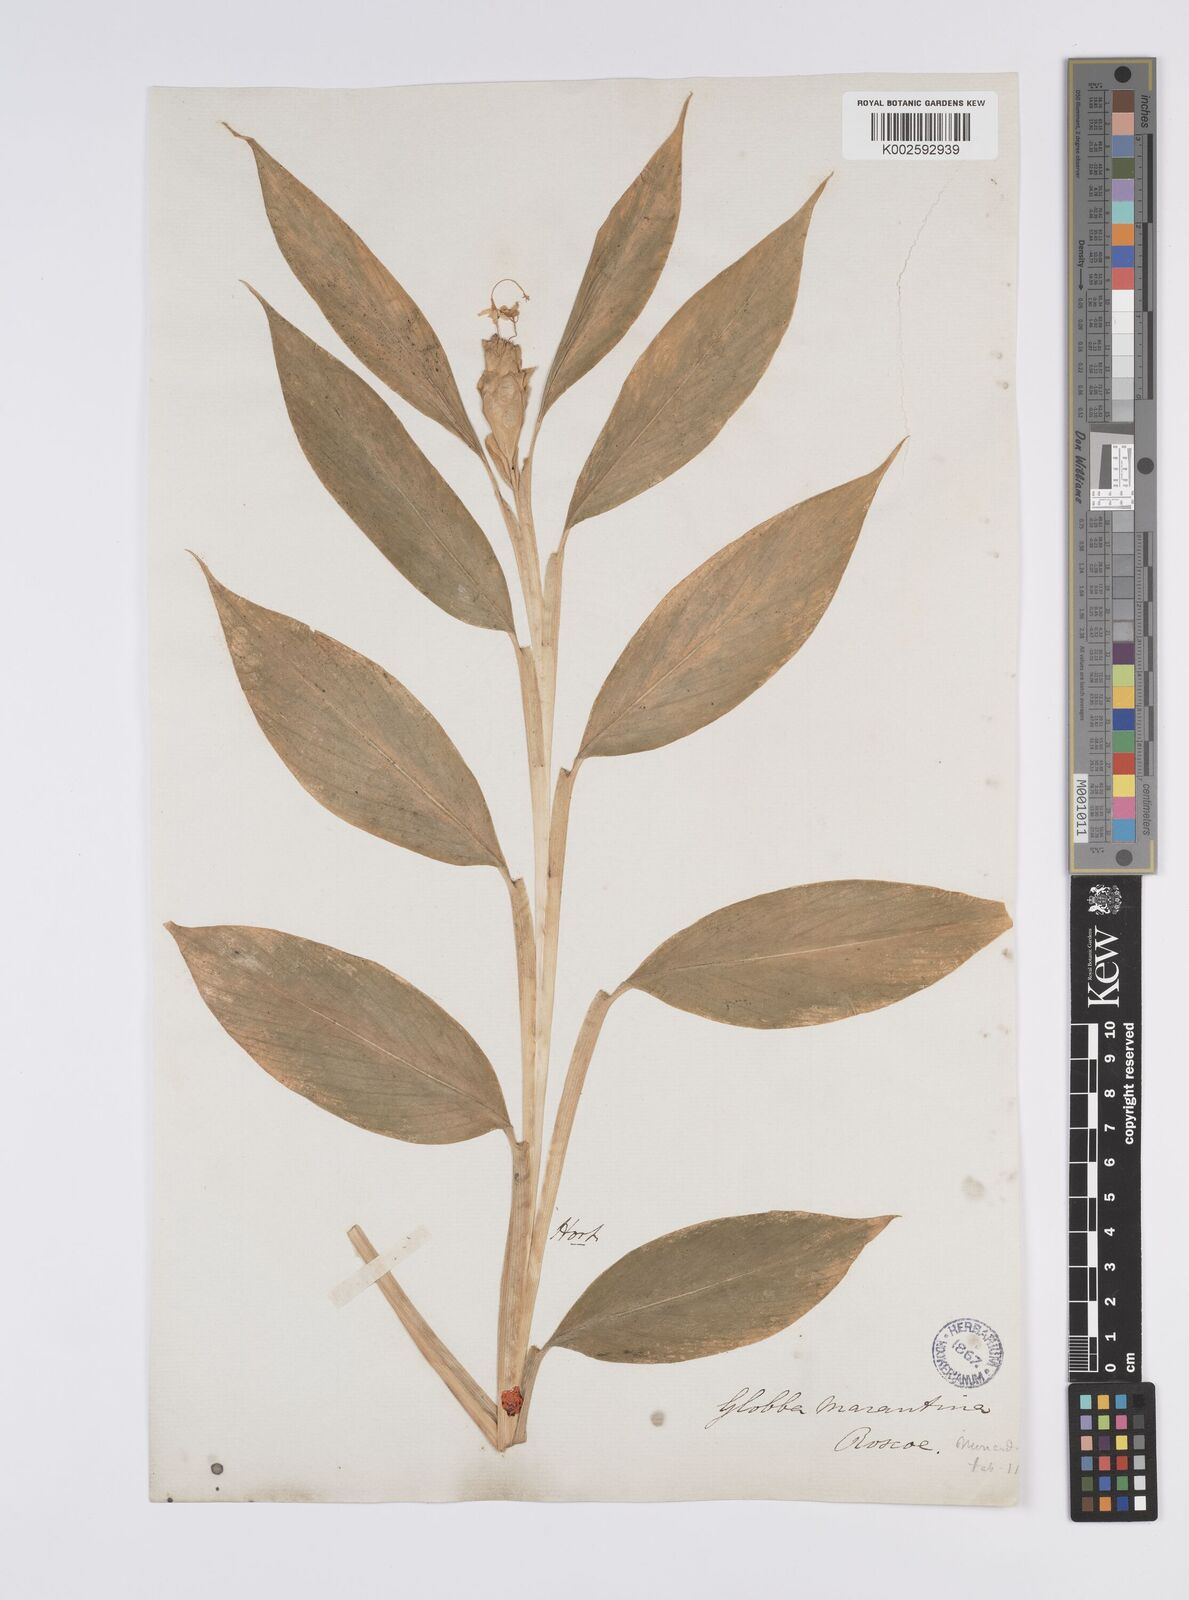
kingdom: Plantae
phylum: Tracheophyta
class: Liliopsida
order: Zingiberales
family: Zingiberaceae
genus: Globba
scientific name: Globba marantina
